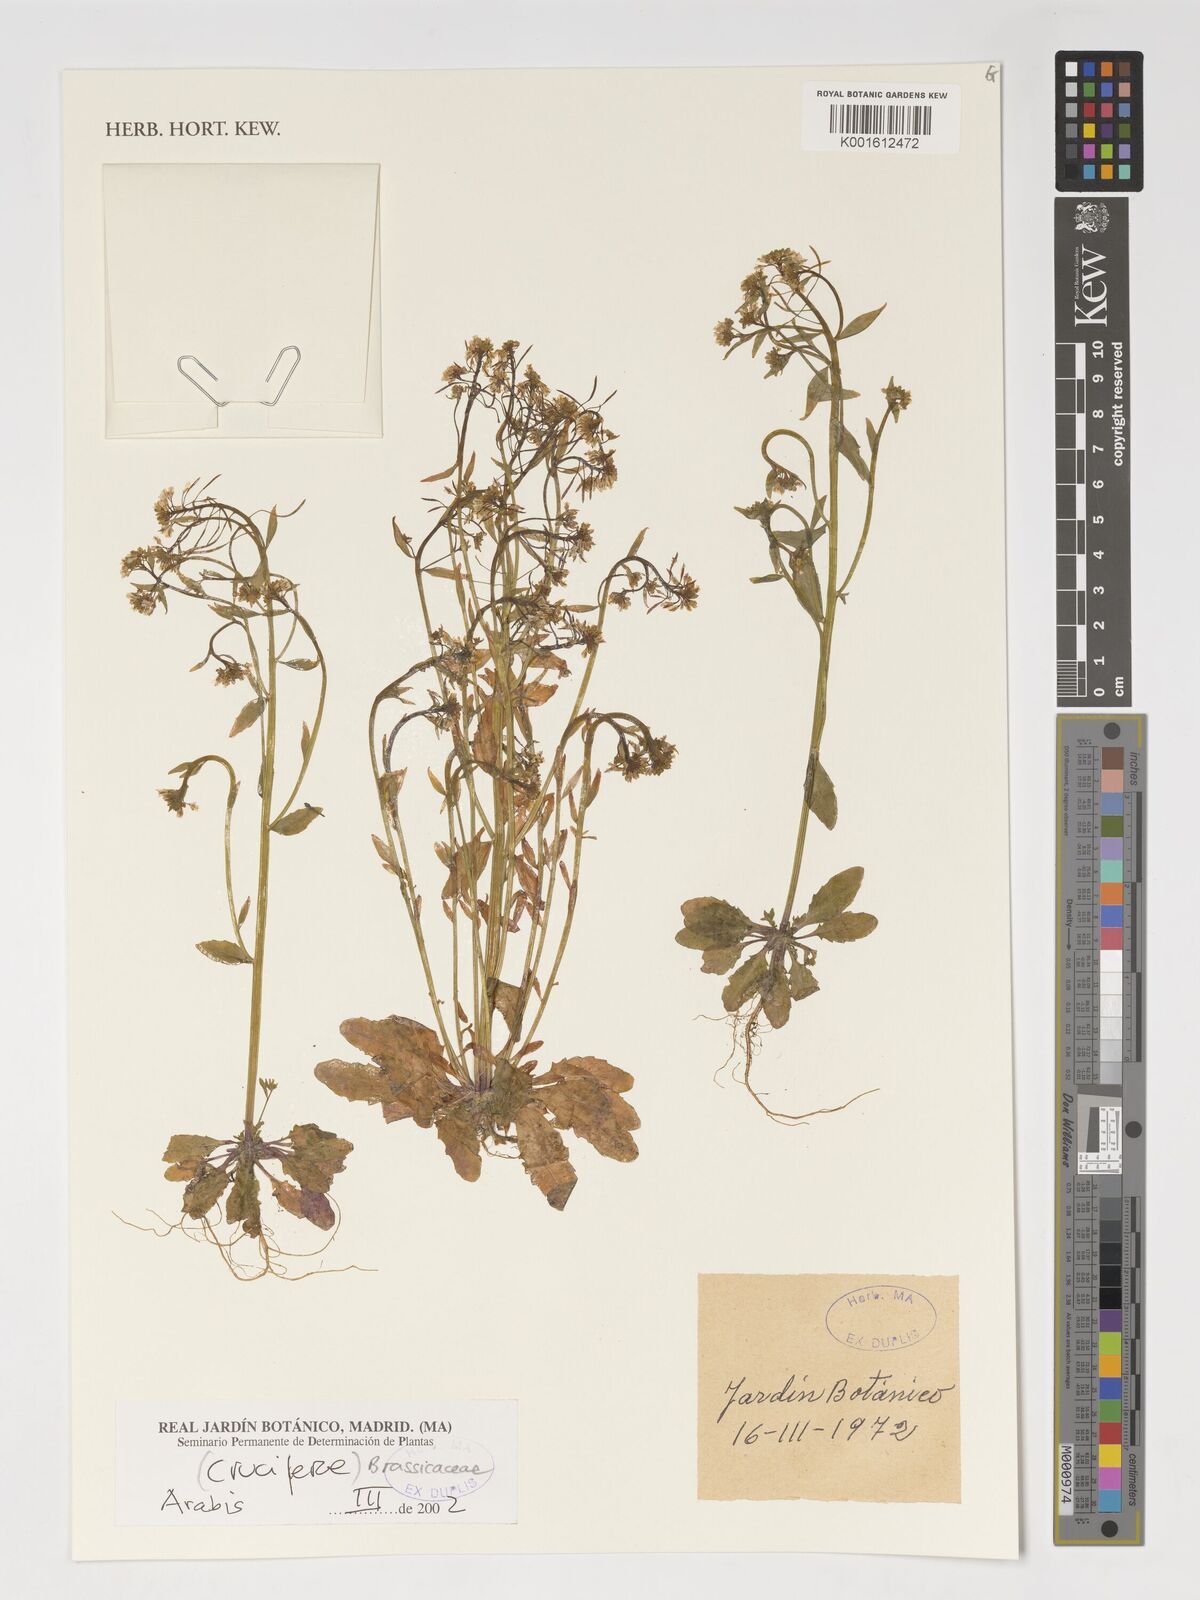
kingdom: Plantae
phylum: Tracheophyta
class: Magnoliopsida
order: Brassicales
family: Brassicaceae
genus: Arabis
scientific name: Arabis alpina
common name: Alpine rock-cress
